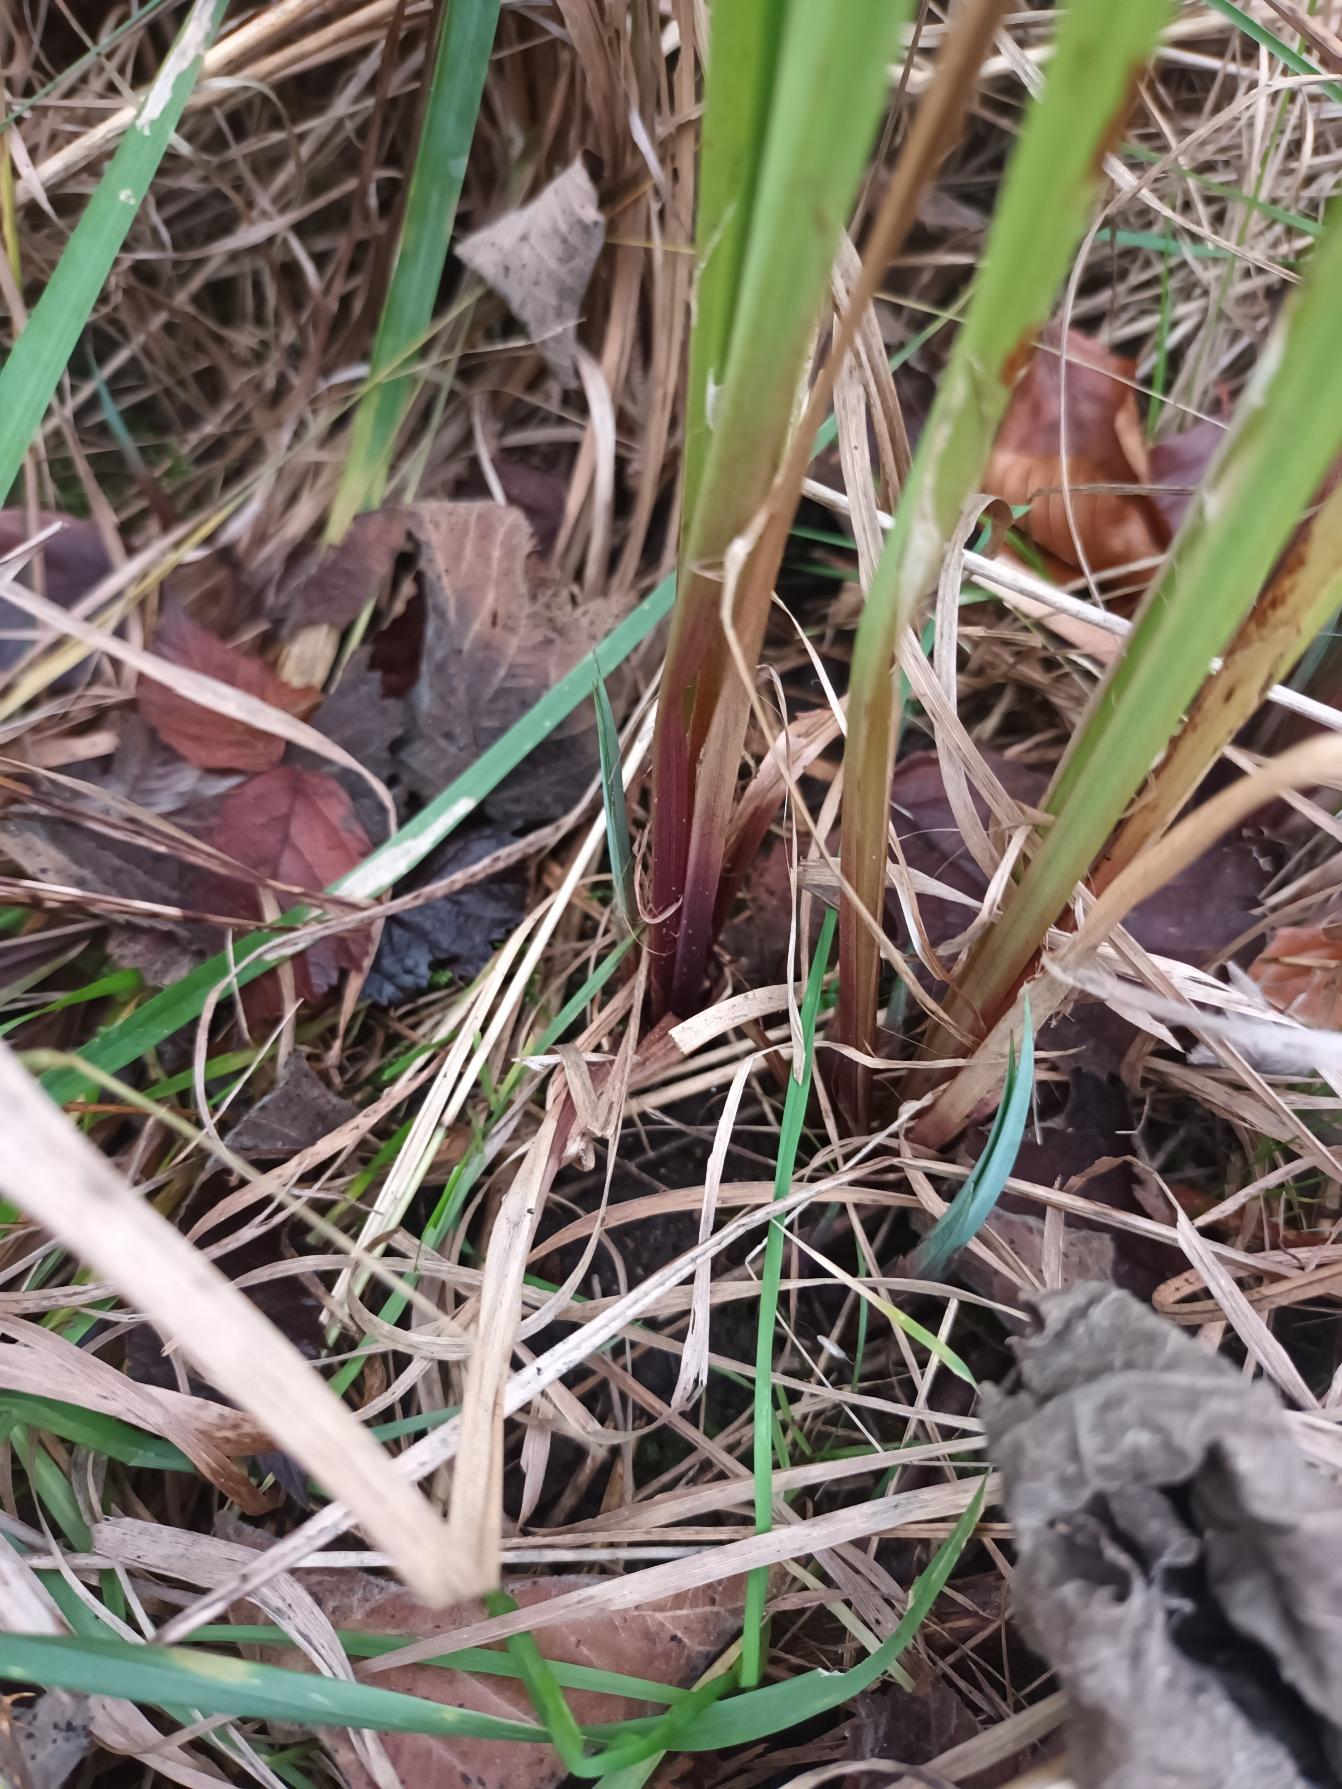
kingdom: Plantae
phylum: Tracheophyta
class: Liliopsida
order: Poales
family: Cyperaceae
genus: Carex
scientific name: Carex acutiformis
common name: Kær-star
